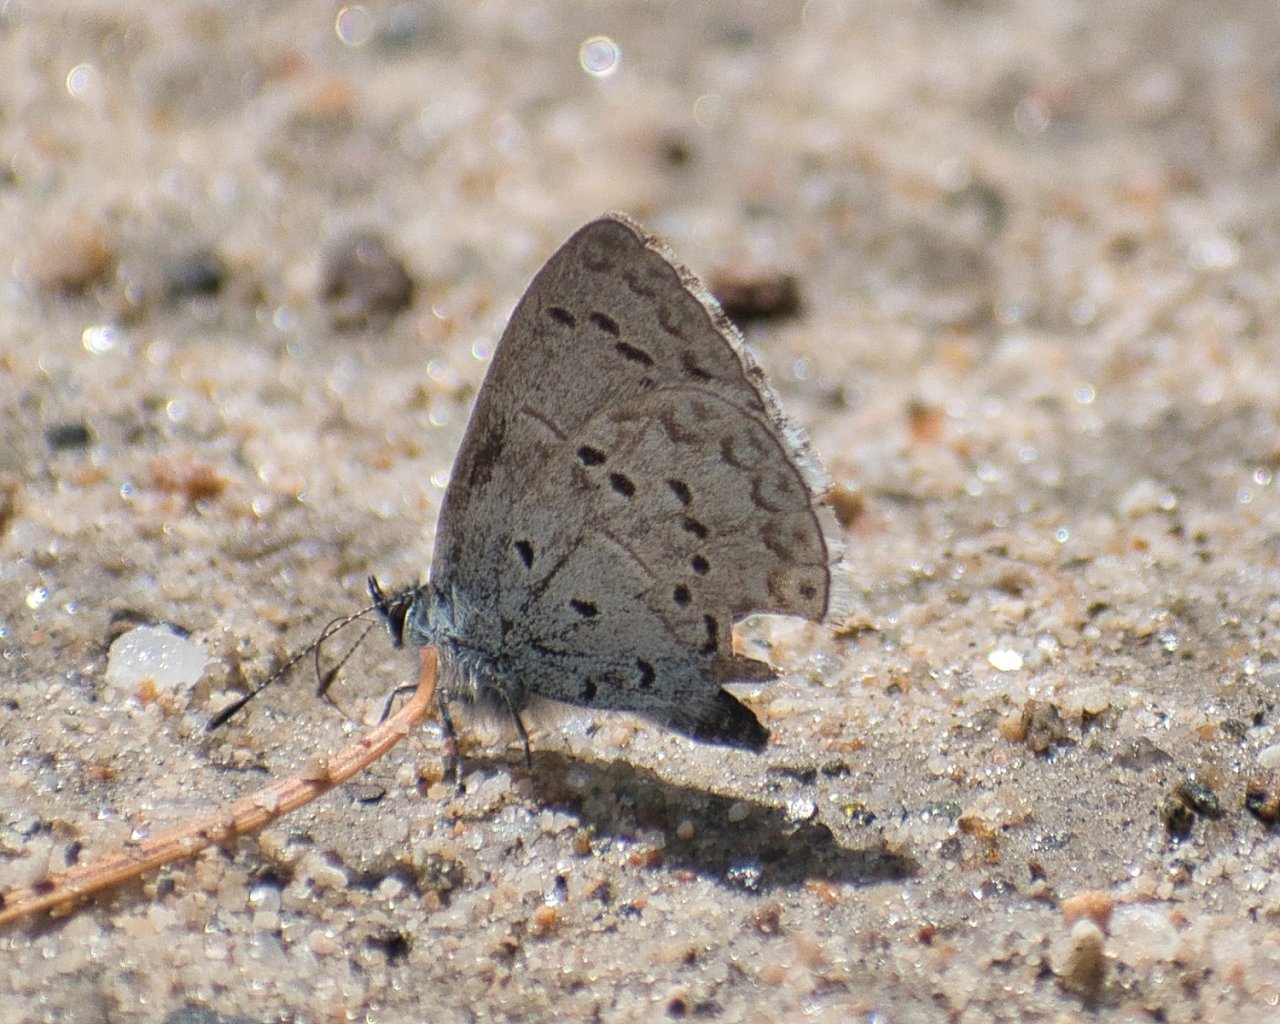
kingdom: Animalia
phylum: Arthropoda
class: Insecta
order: Lepidoptera
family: Lycaenidae
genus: Celastrina
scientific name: Celastrina ladon
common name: Echo Azure
